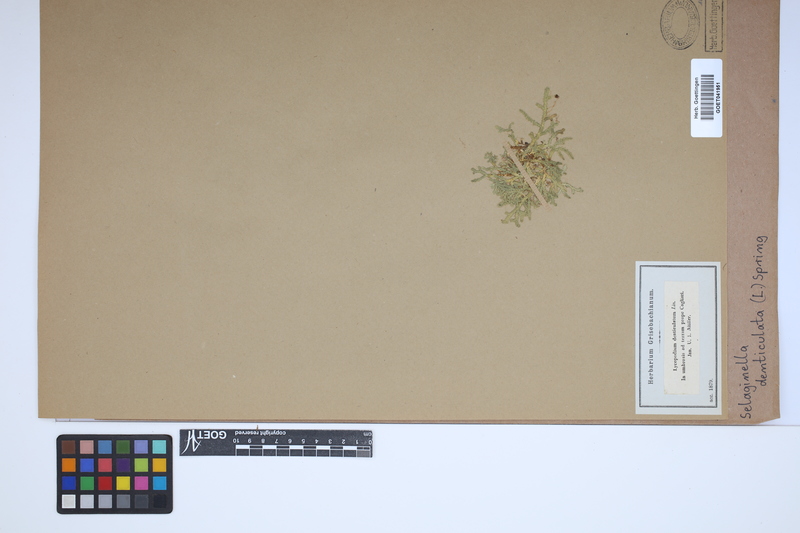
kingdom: Plantae
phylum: Tracheophyta
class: Lycopodiopsida
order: Selaginellales
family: Selaginellaceae
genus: Selaginella
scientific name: Selaginella denticulata
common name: Toothed-leaved clubmoss
